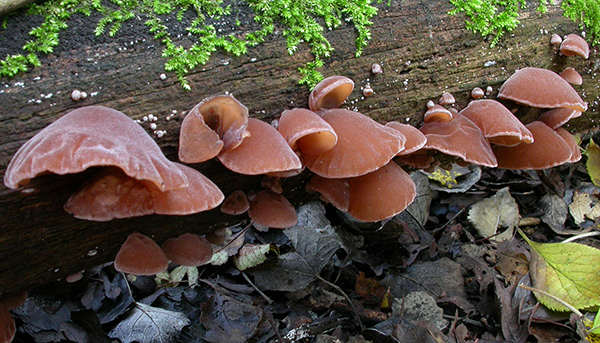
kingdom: Fungi
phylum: Basidiomycota
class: Agaricomycetes
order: Auriculariales
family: Auriculariaceae
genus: Auricularia
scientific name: Auricularia auricula-judae
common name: almindelig judasøre
